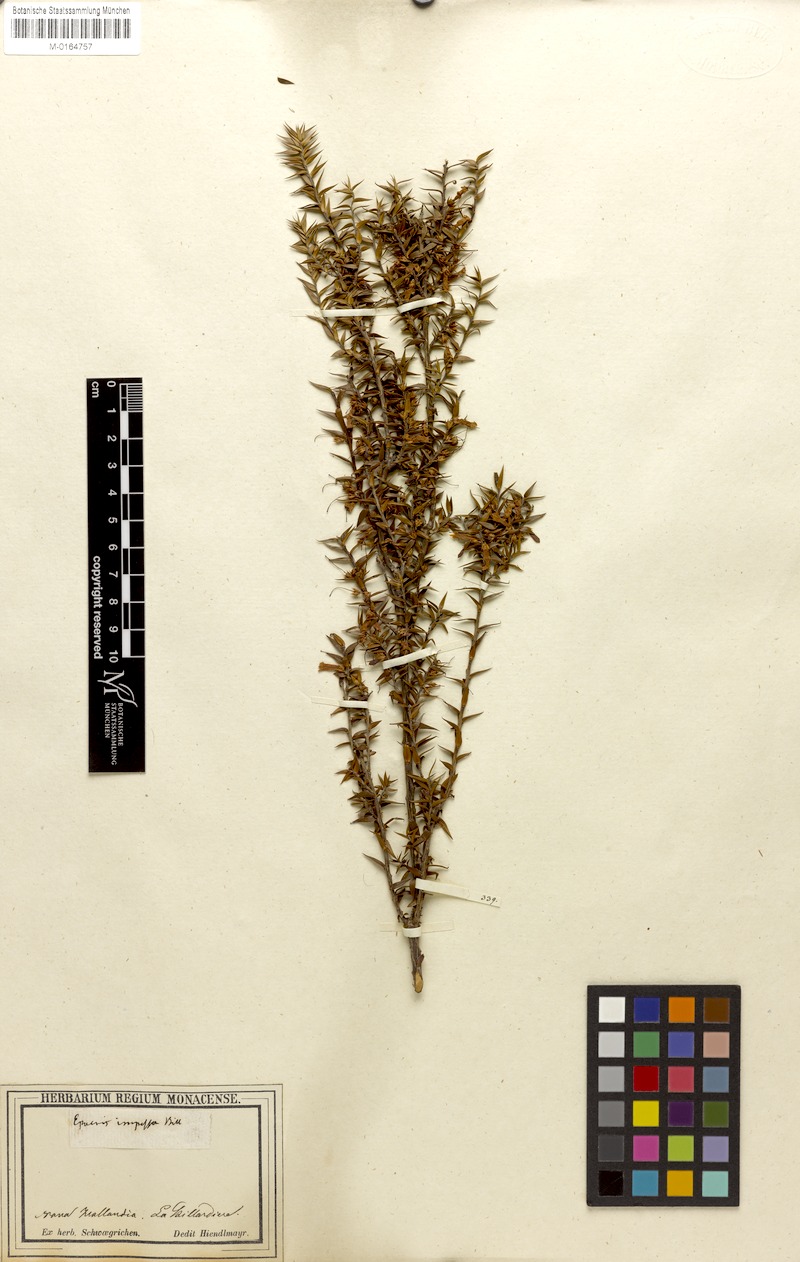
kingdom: Plantae
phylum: Tracheophyta
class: Magnoliopsida
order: Ericales
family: Ericaceae
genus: Epacris
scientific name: Epacris impressa
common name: Common-heath
